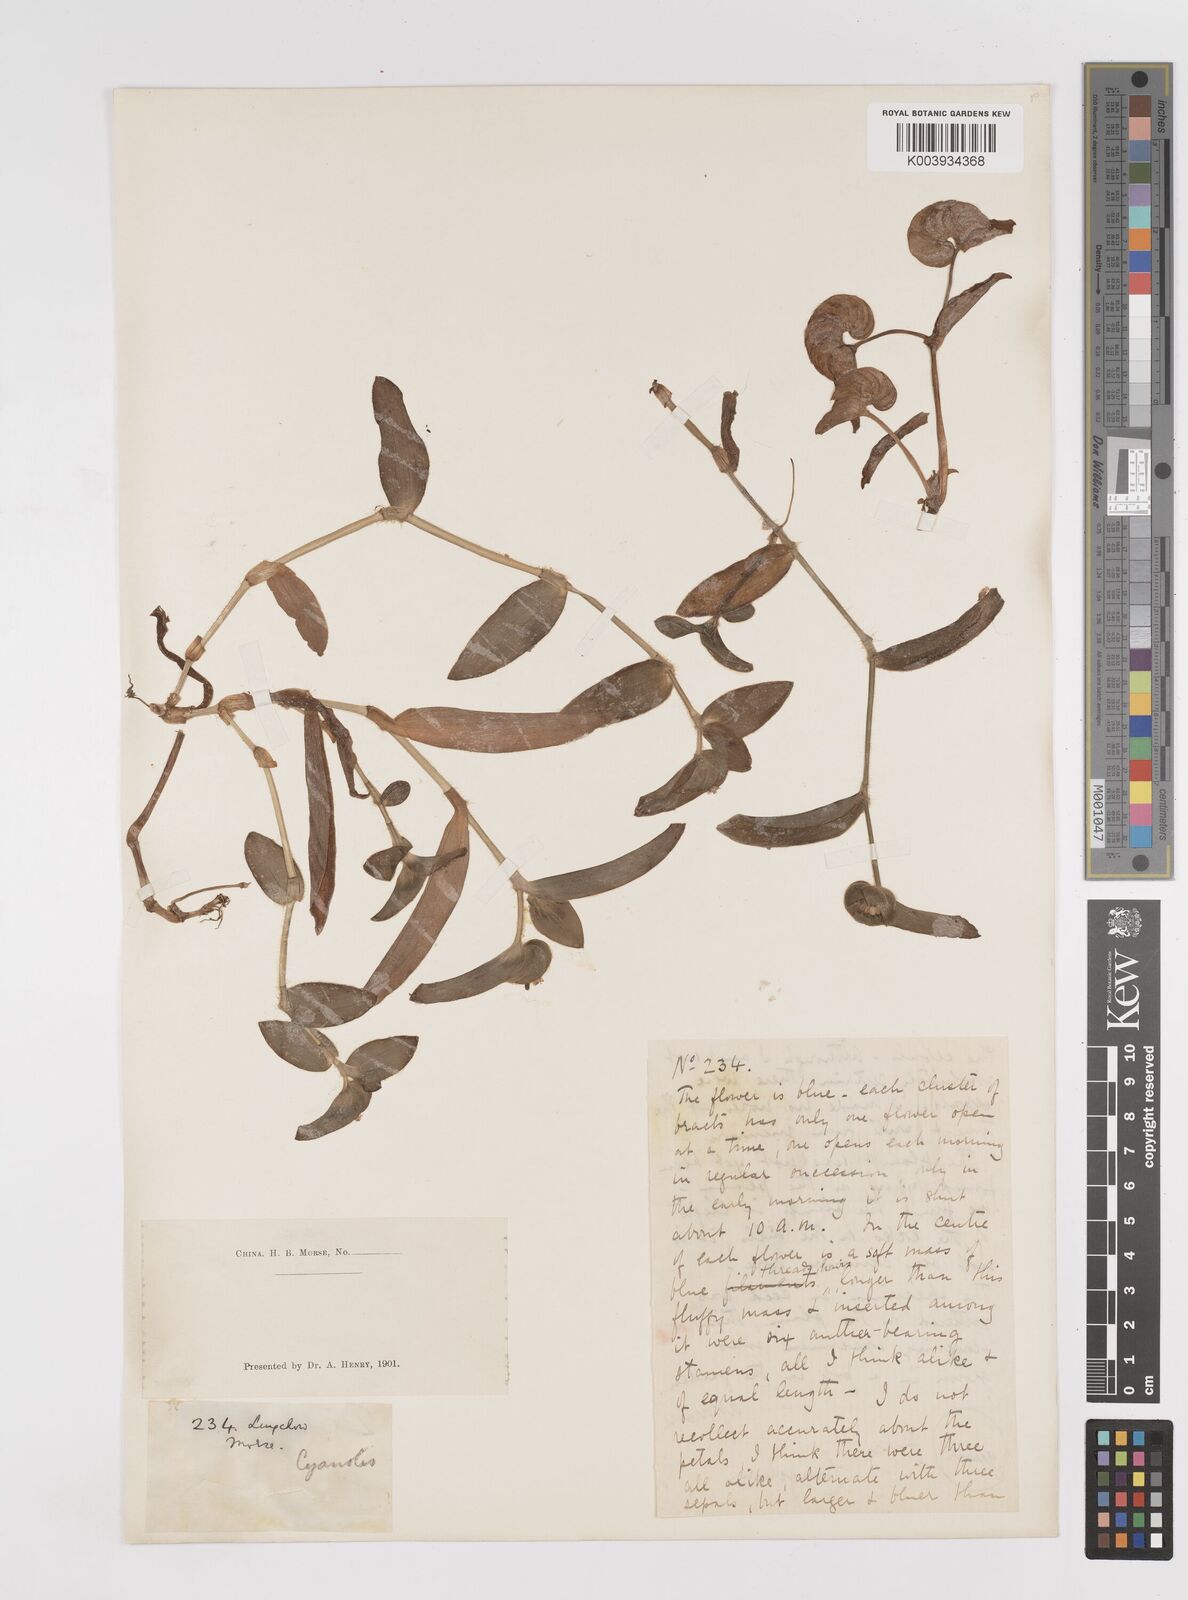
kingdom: Plantae
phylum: Tracheophyta
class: Liliopsida
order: Commelinales
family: Commelinaceae
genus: Cyanotis
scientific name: Cyanotis
